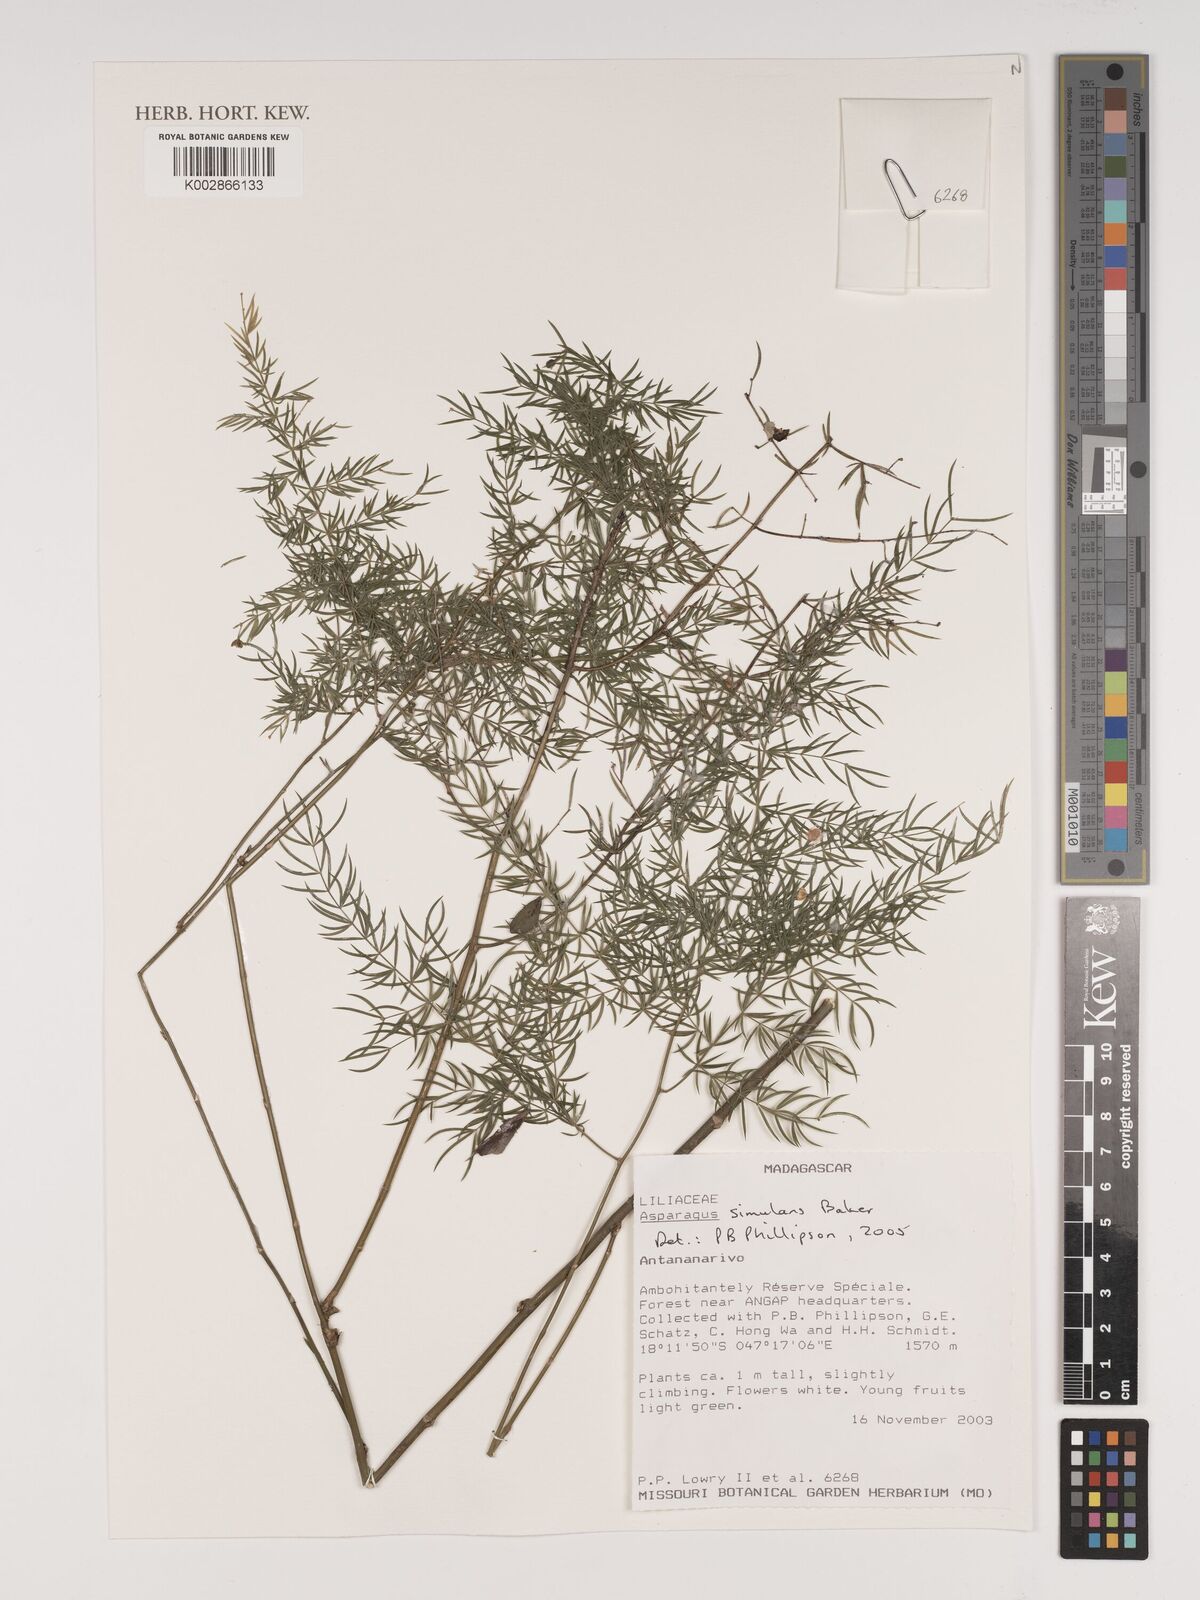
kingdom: Plantae
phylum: Tracheophyta
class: Liliopsida
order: Asparagales
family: Asparagaceae
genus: Asparagus
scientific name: Asparagus simulans
